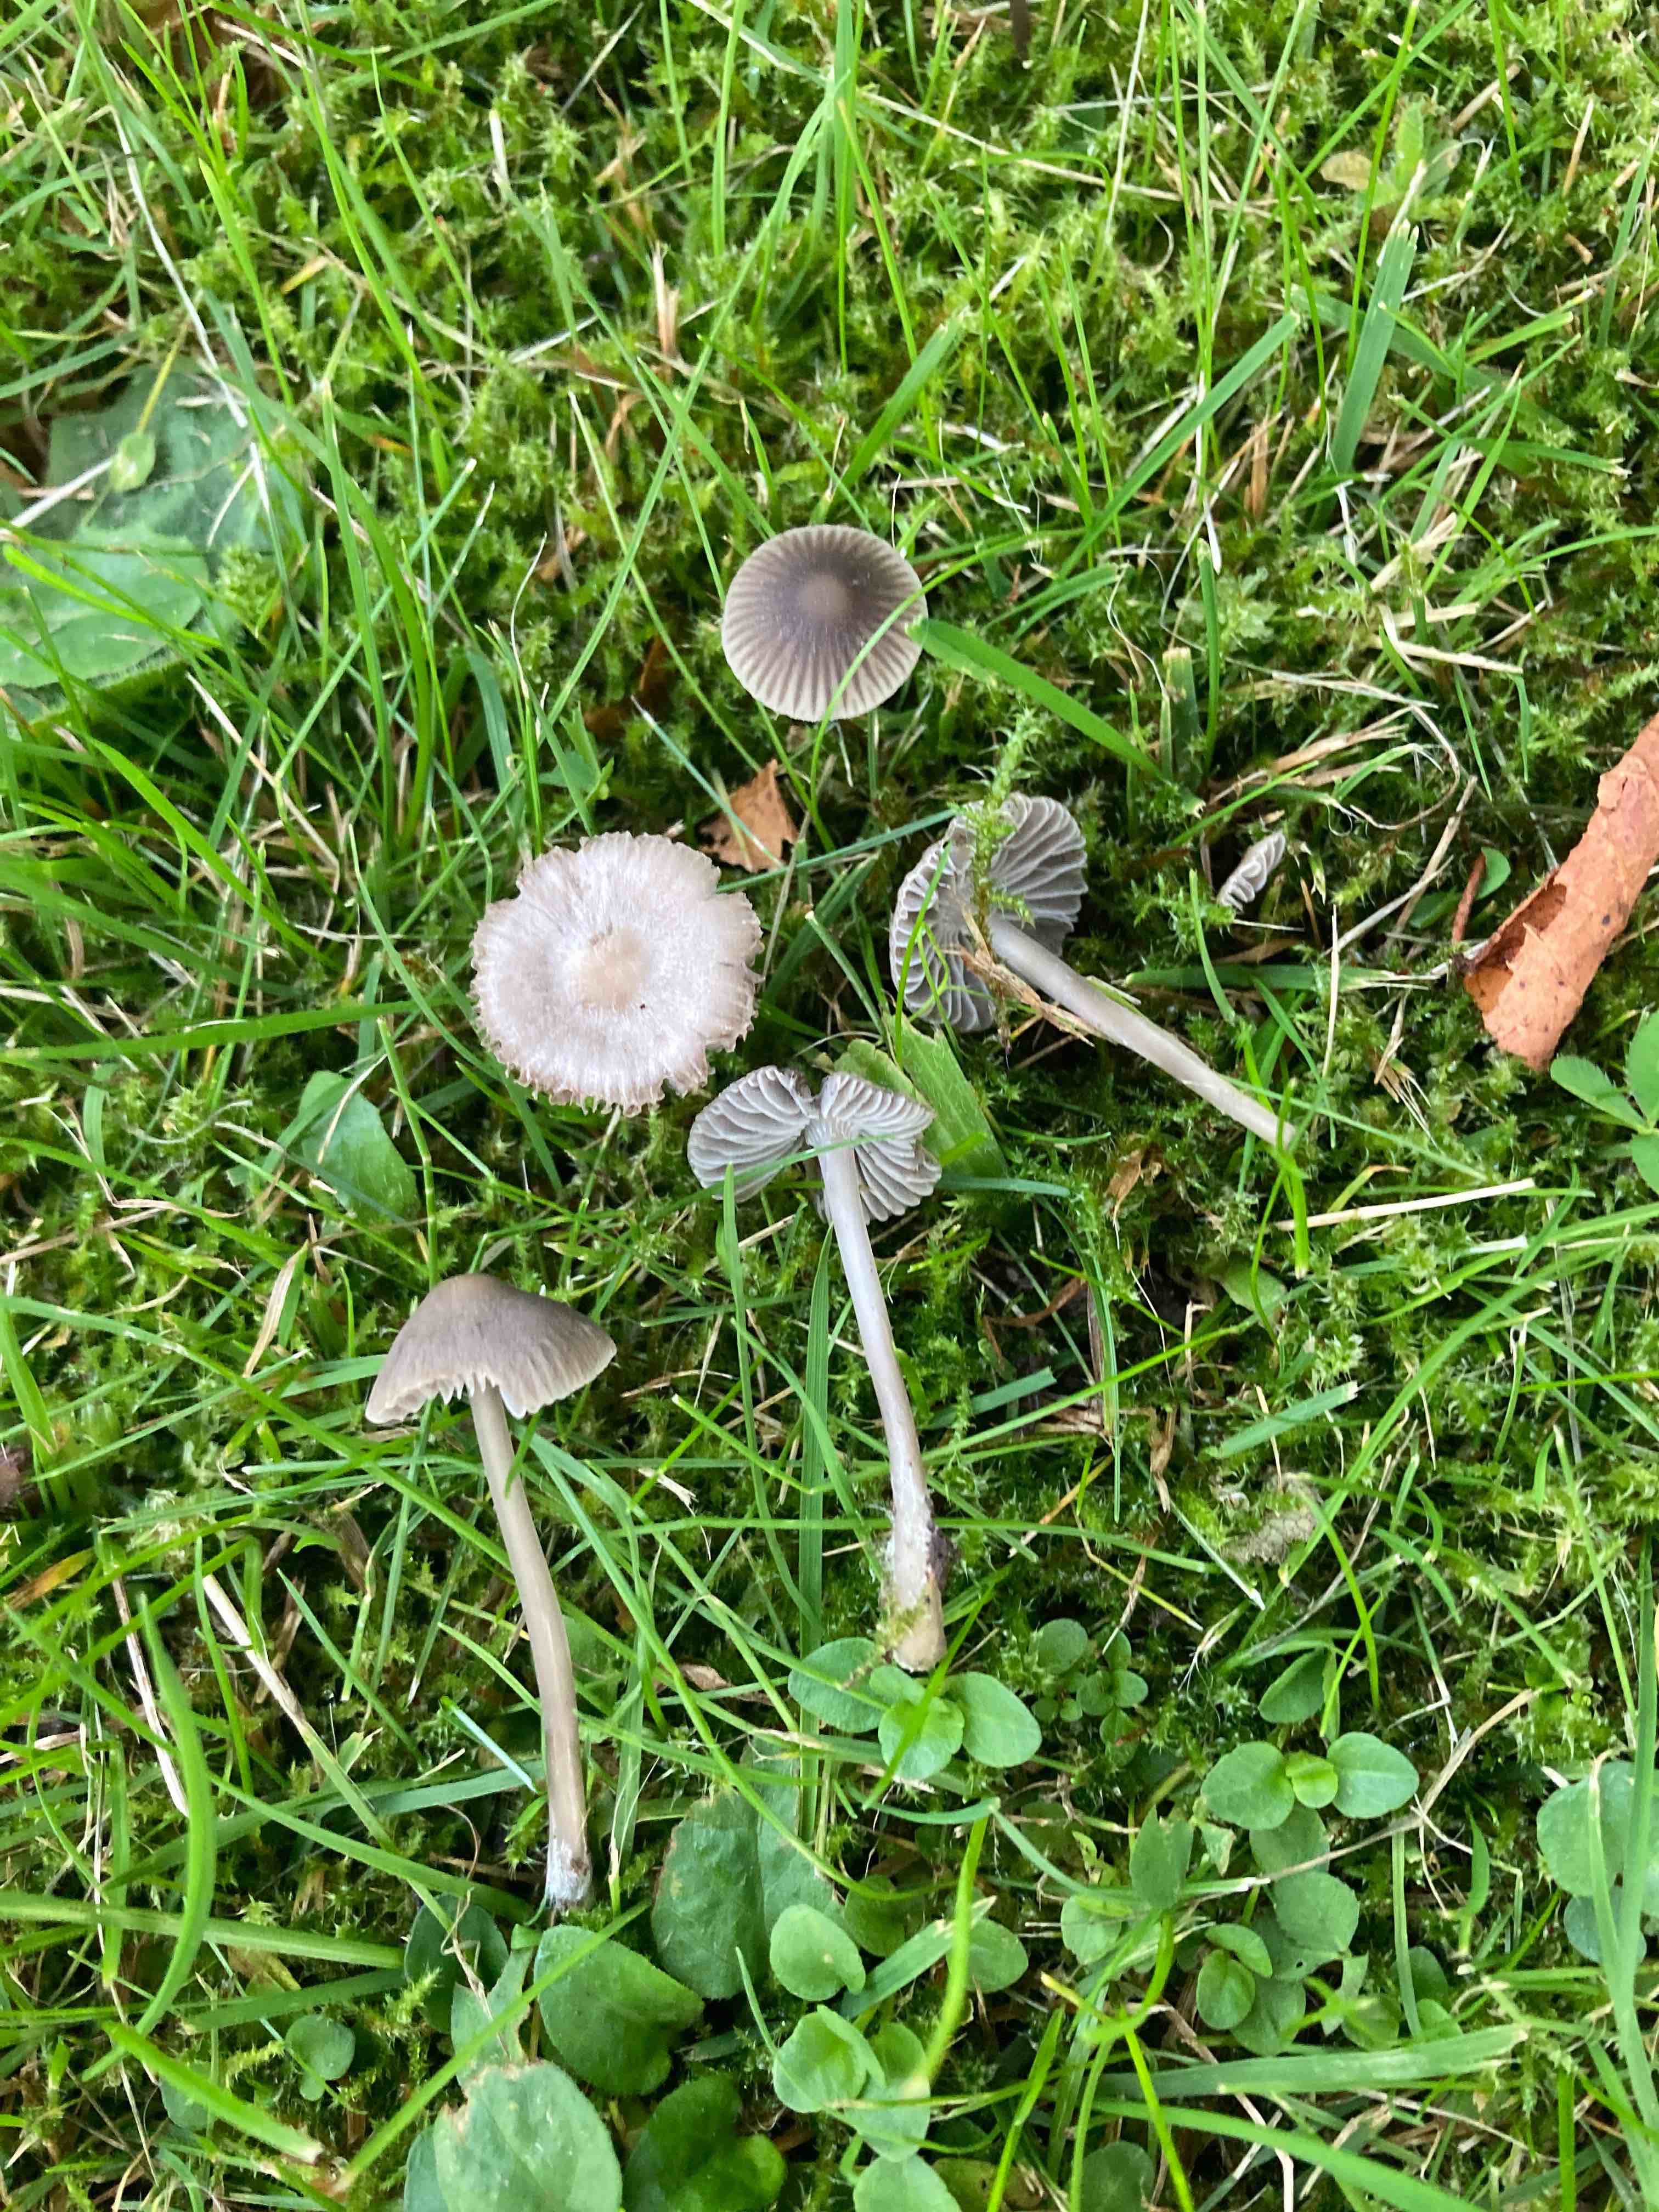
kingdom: Fungi
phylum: Basidiomycota
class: Agaricomycetes
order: Agaricales
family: Mycenaceae
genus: Mycena
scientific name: Mycena aetites
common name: plæne-huesvamp
